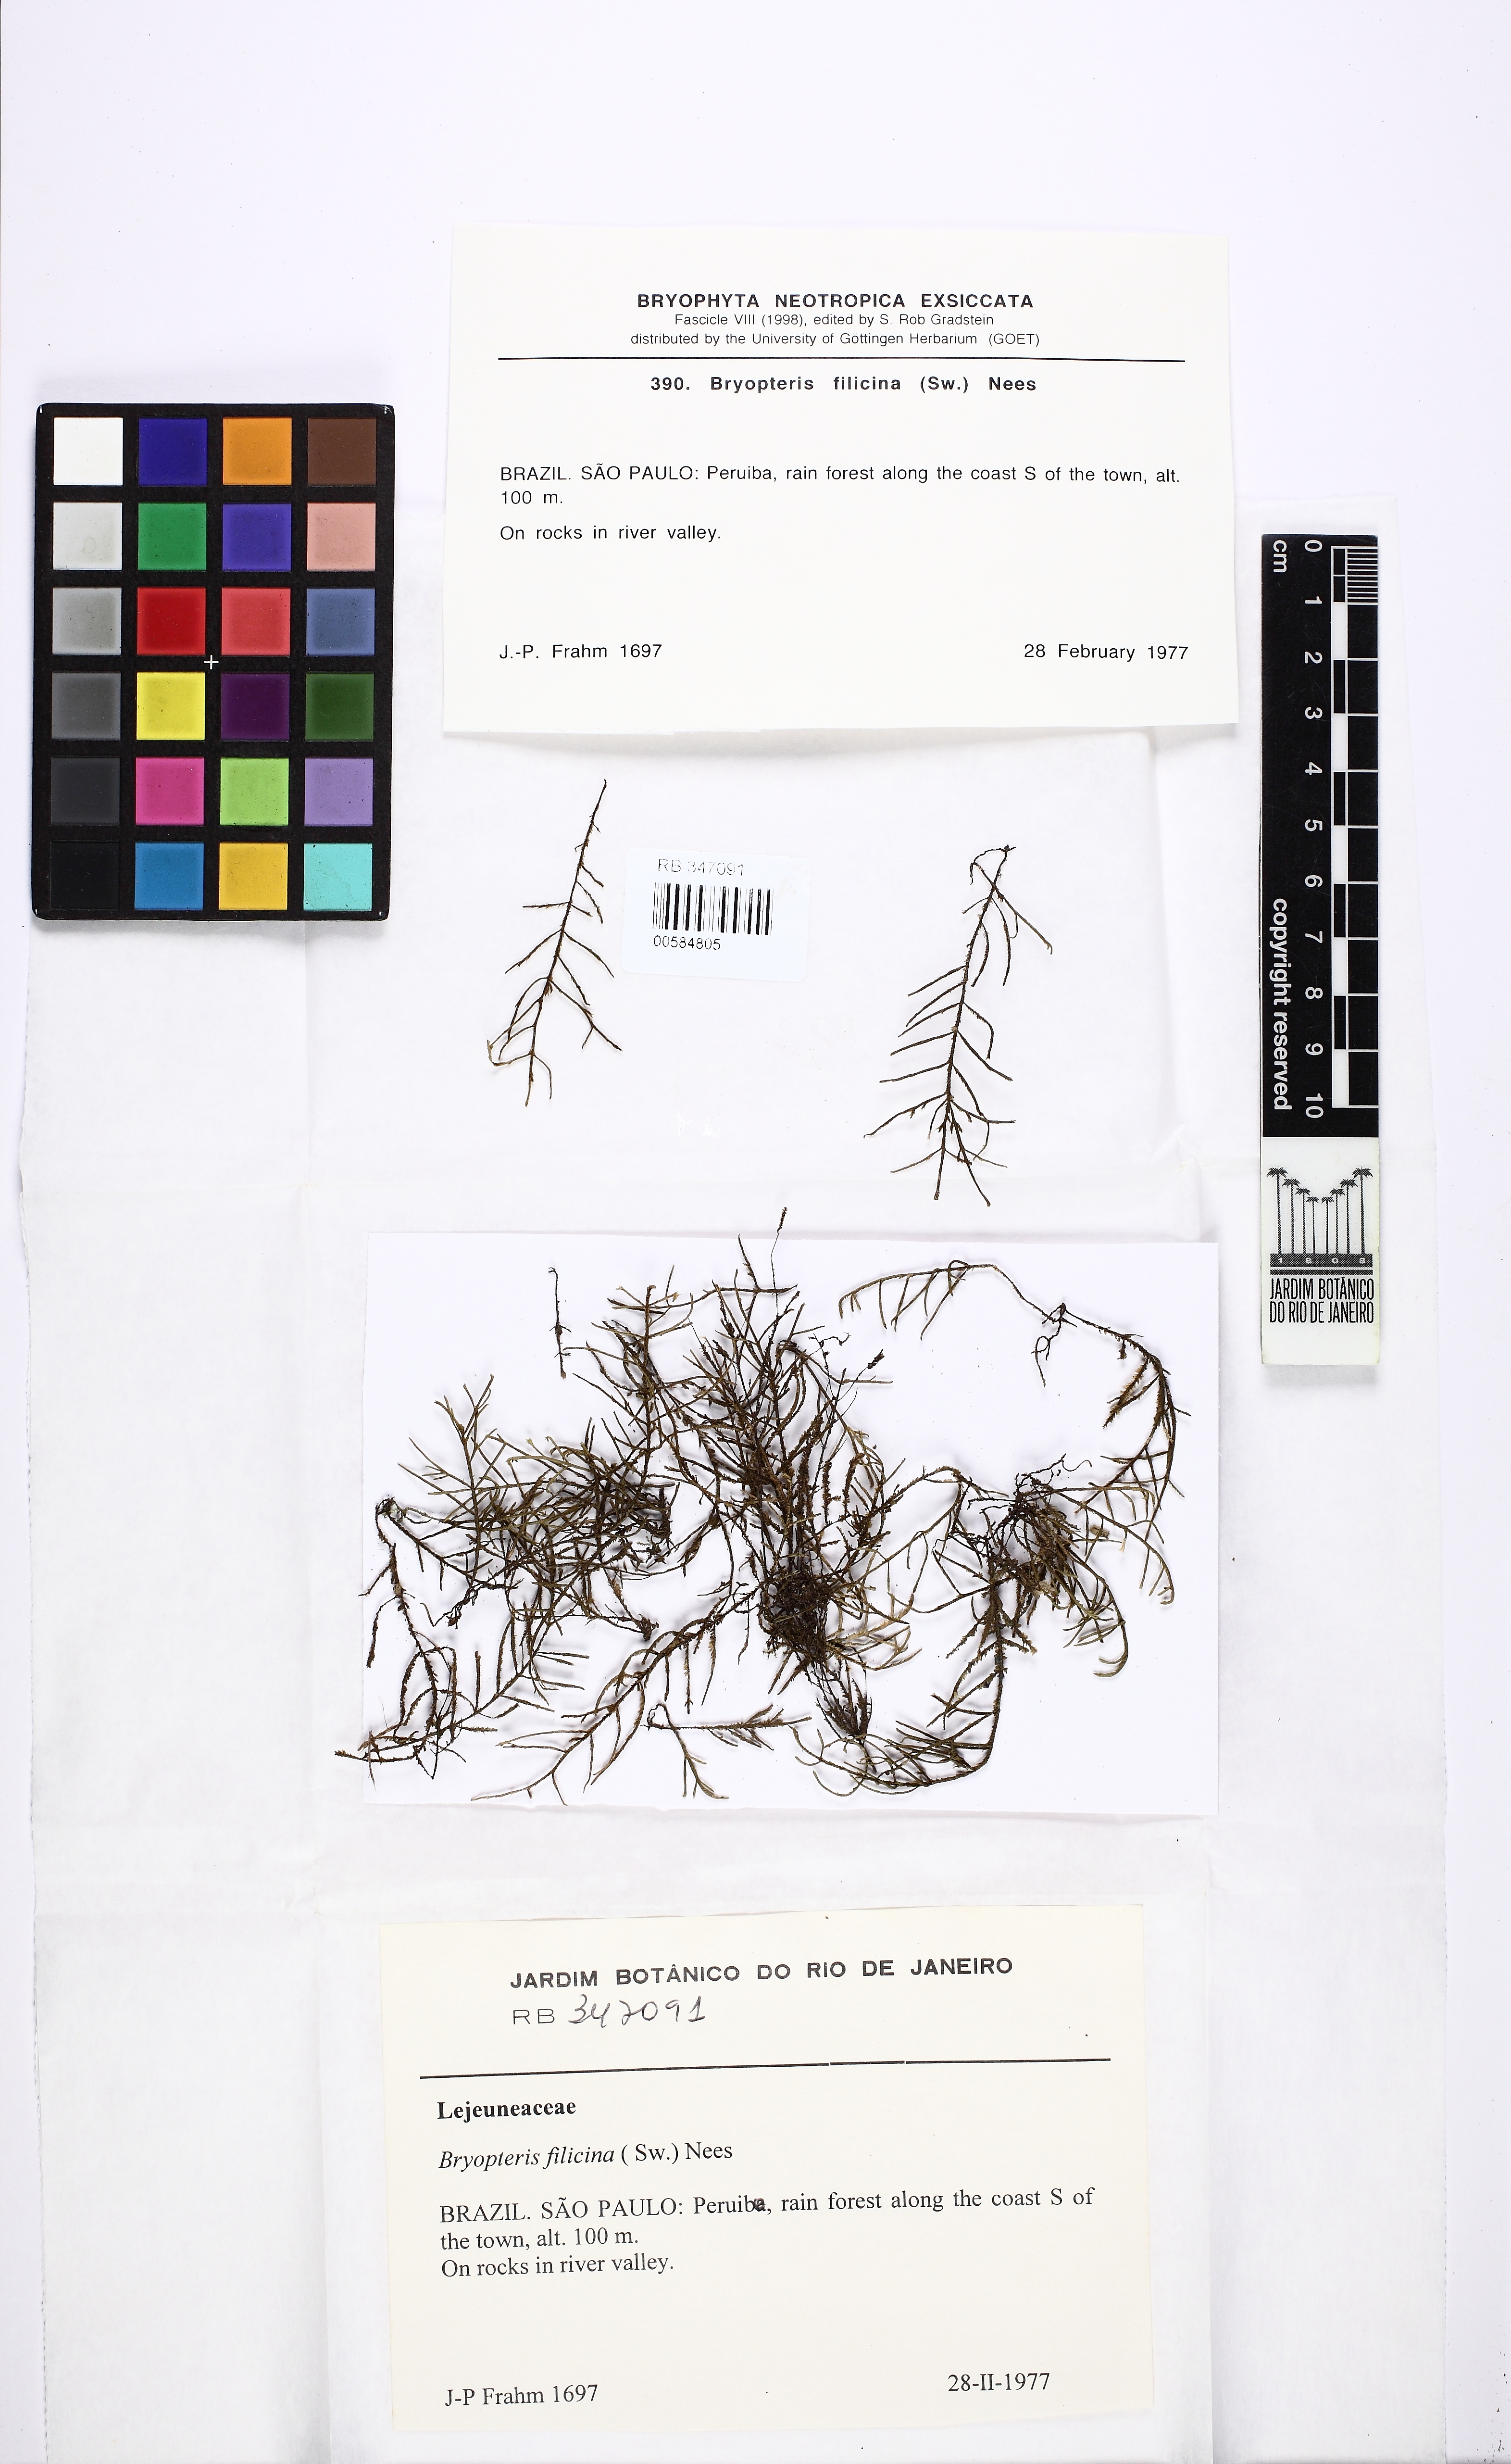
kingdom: Plantae
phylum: Marchantiophyta
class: Jungermanniopsida
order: Porellales
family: Lejeuneaceae
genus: Bryopteris
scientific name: Bryopteris filicina
